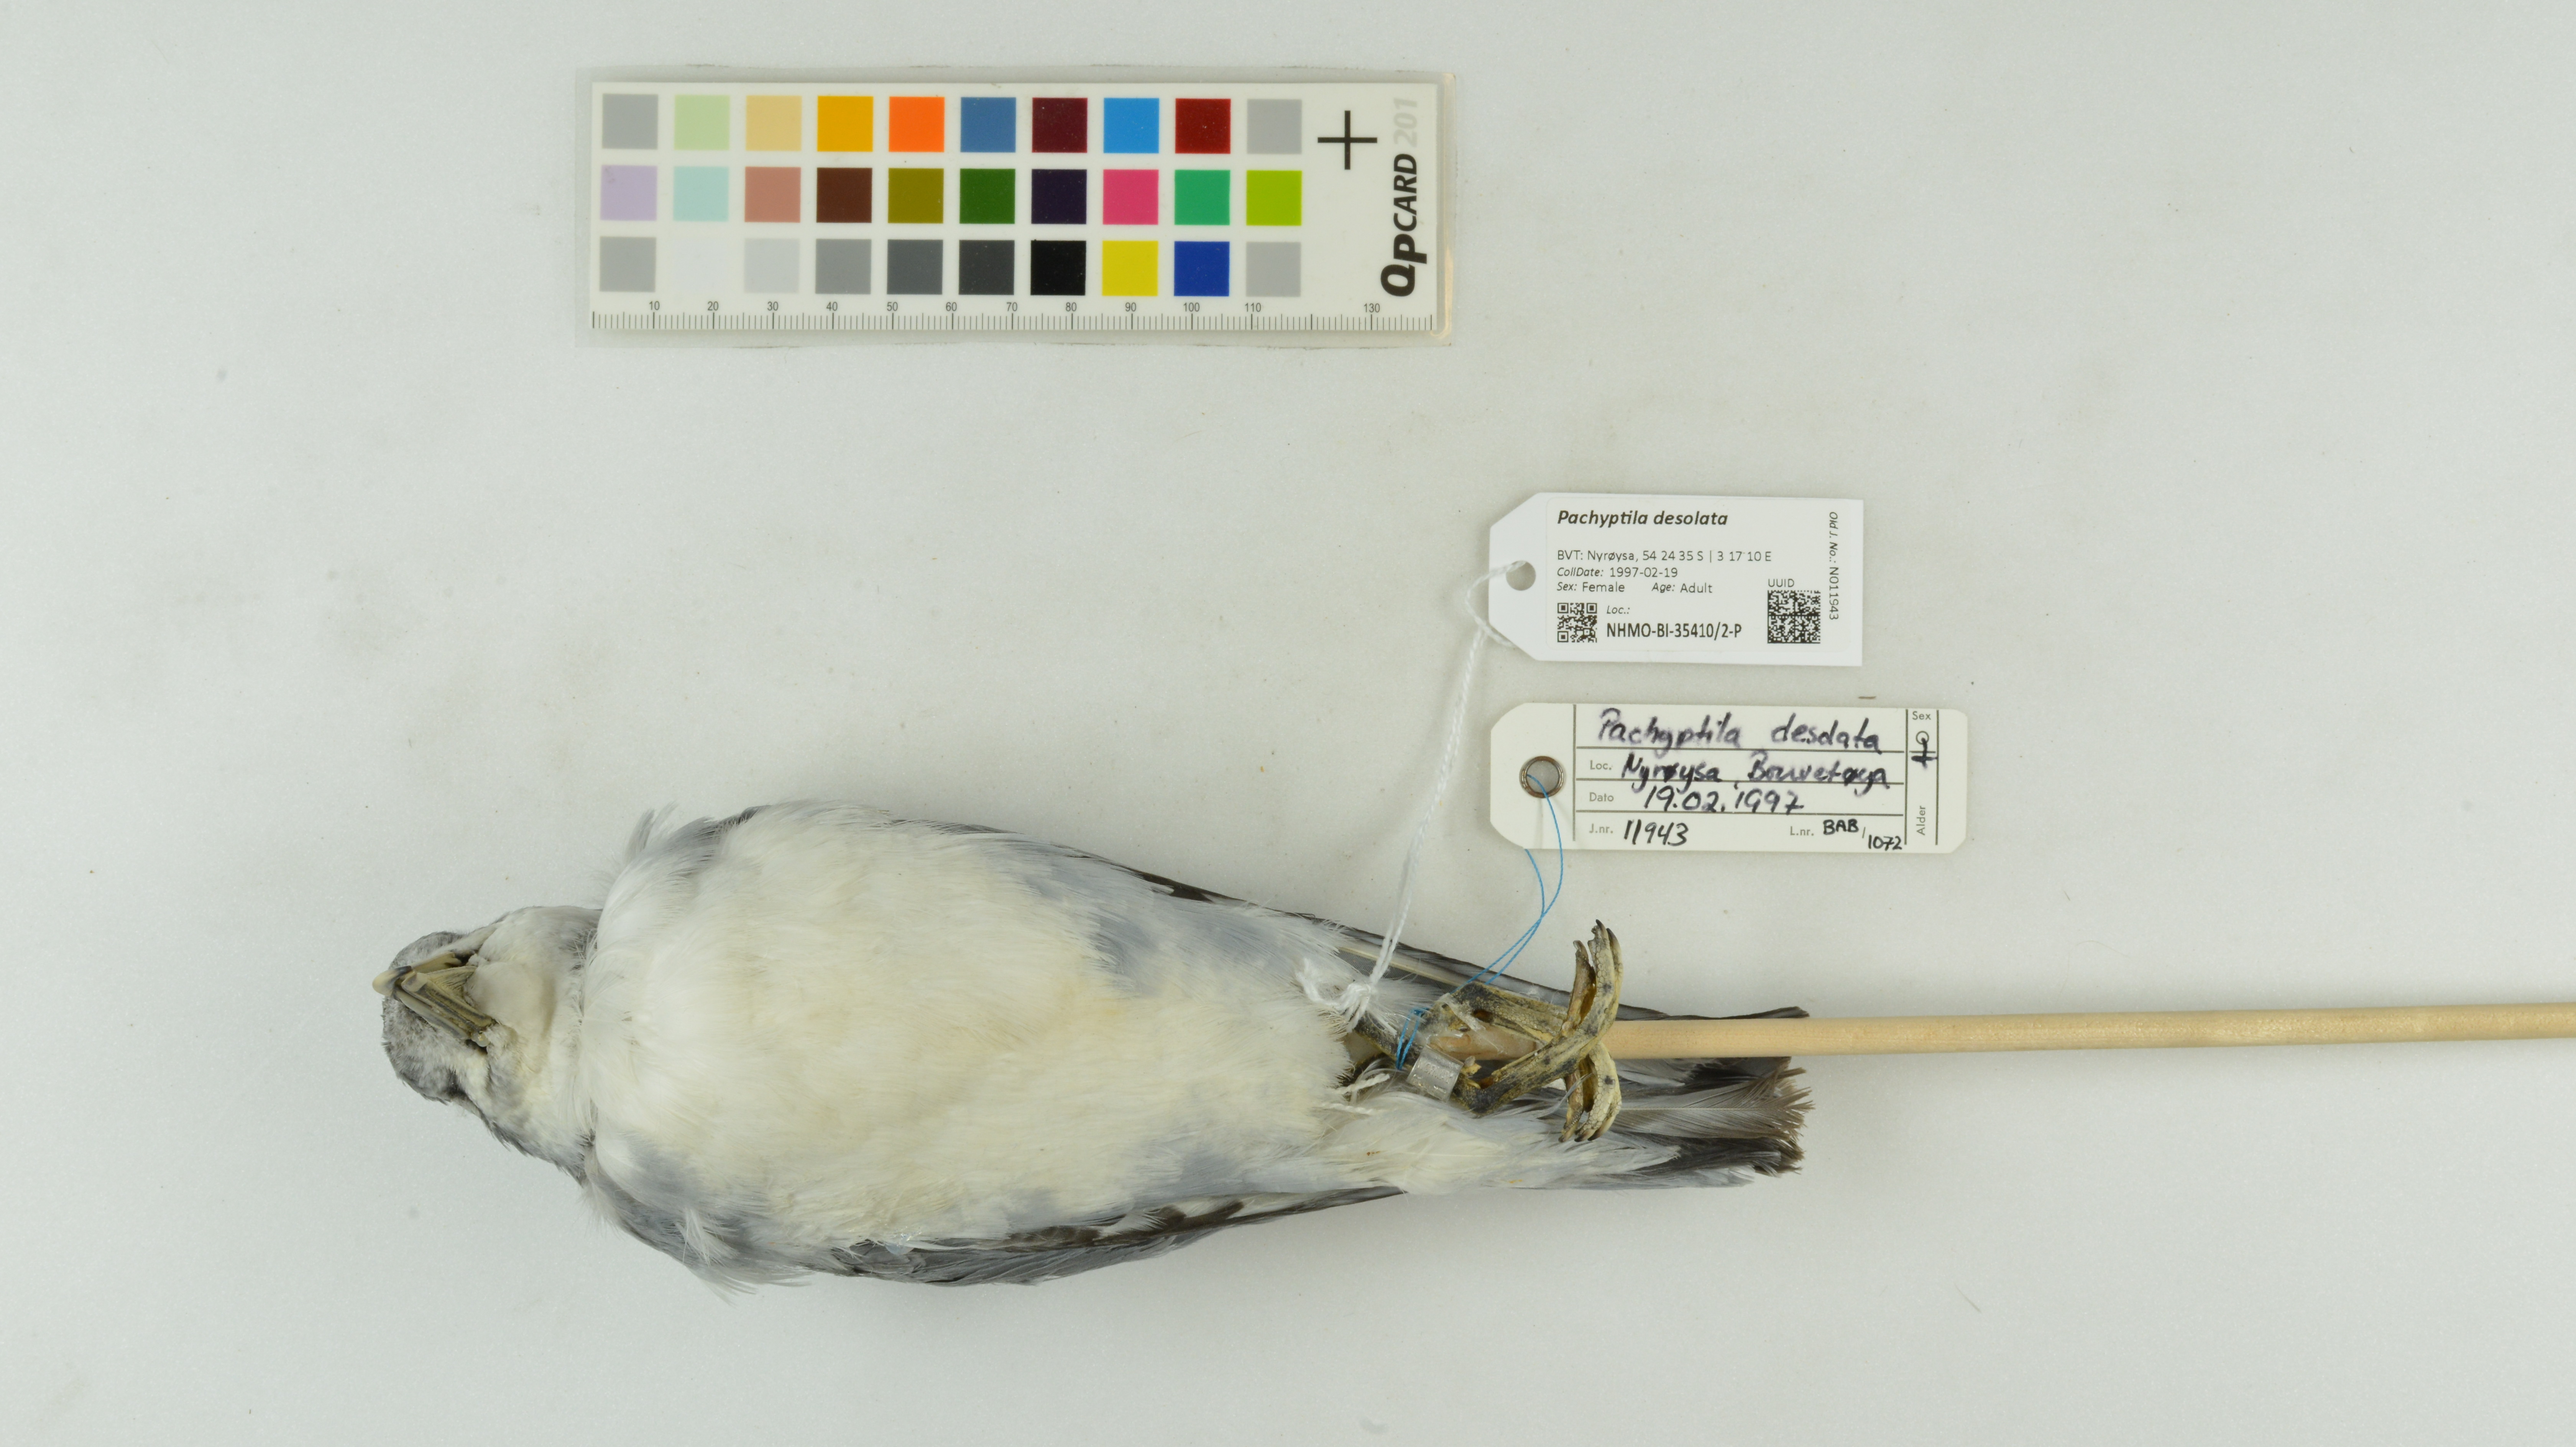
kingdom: Animalia
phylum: Chordata
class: Aves
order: Procellariiformes
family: Procellariidae
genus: Pachyptila
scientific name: Pachyptila desolata
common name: Antarctic prion
